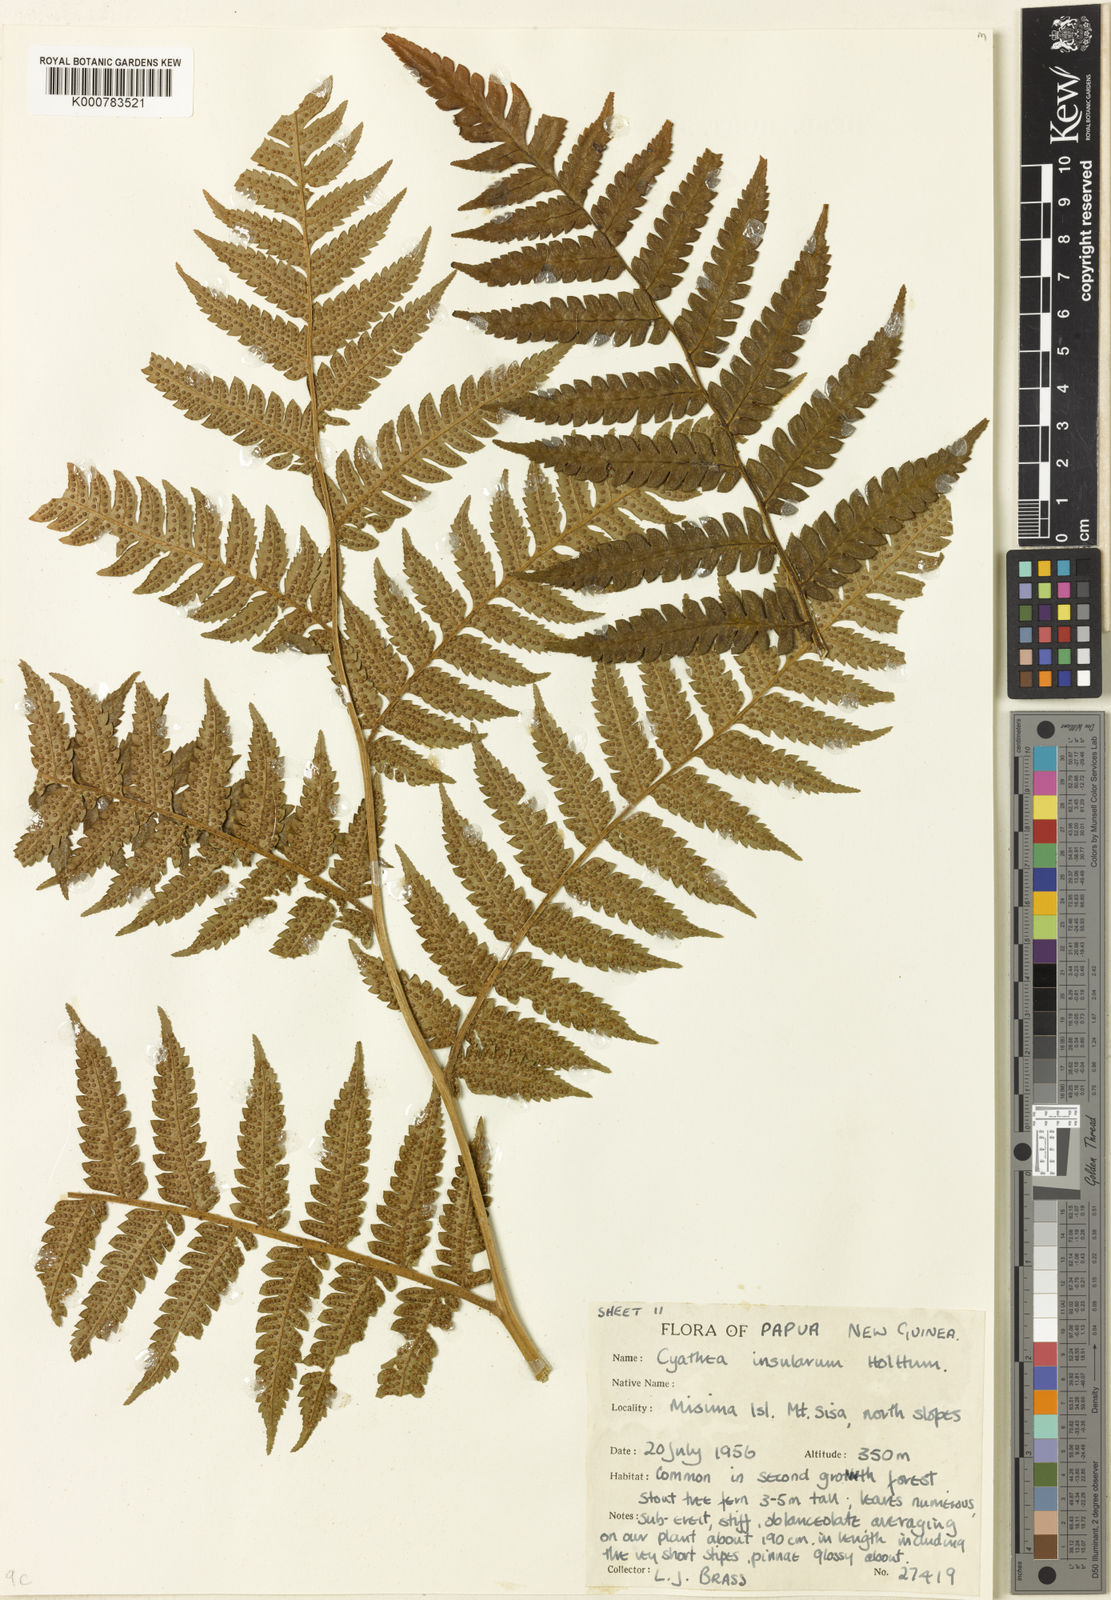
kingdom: Plantae
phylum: Tracheophyta
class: Polypodiopsida
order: Cyatheales
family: Cyatheaceae
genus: Alsophila
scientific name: Alsophila insulana
